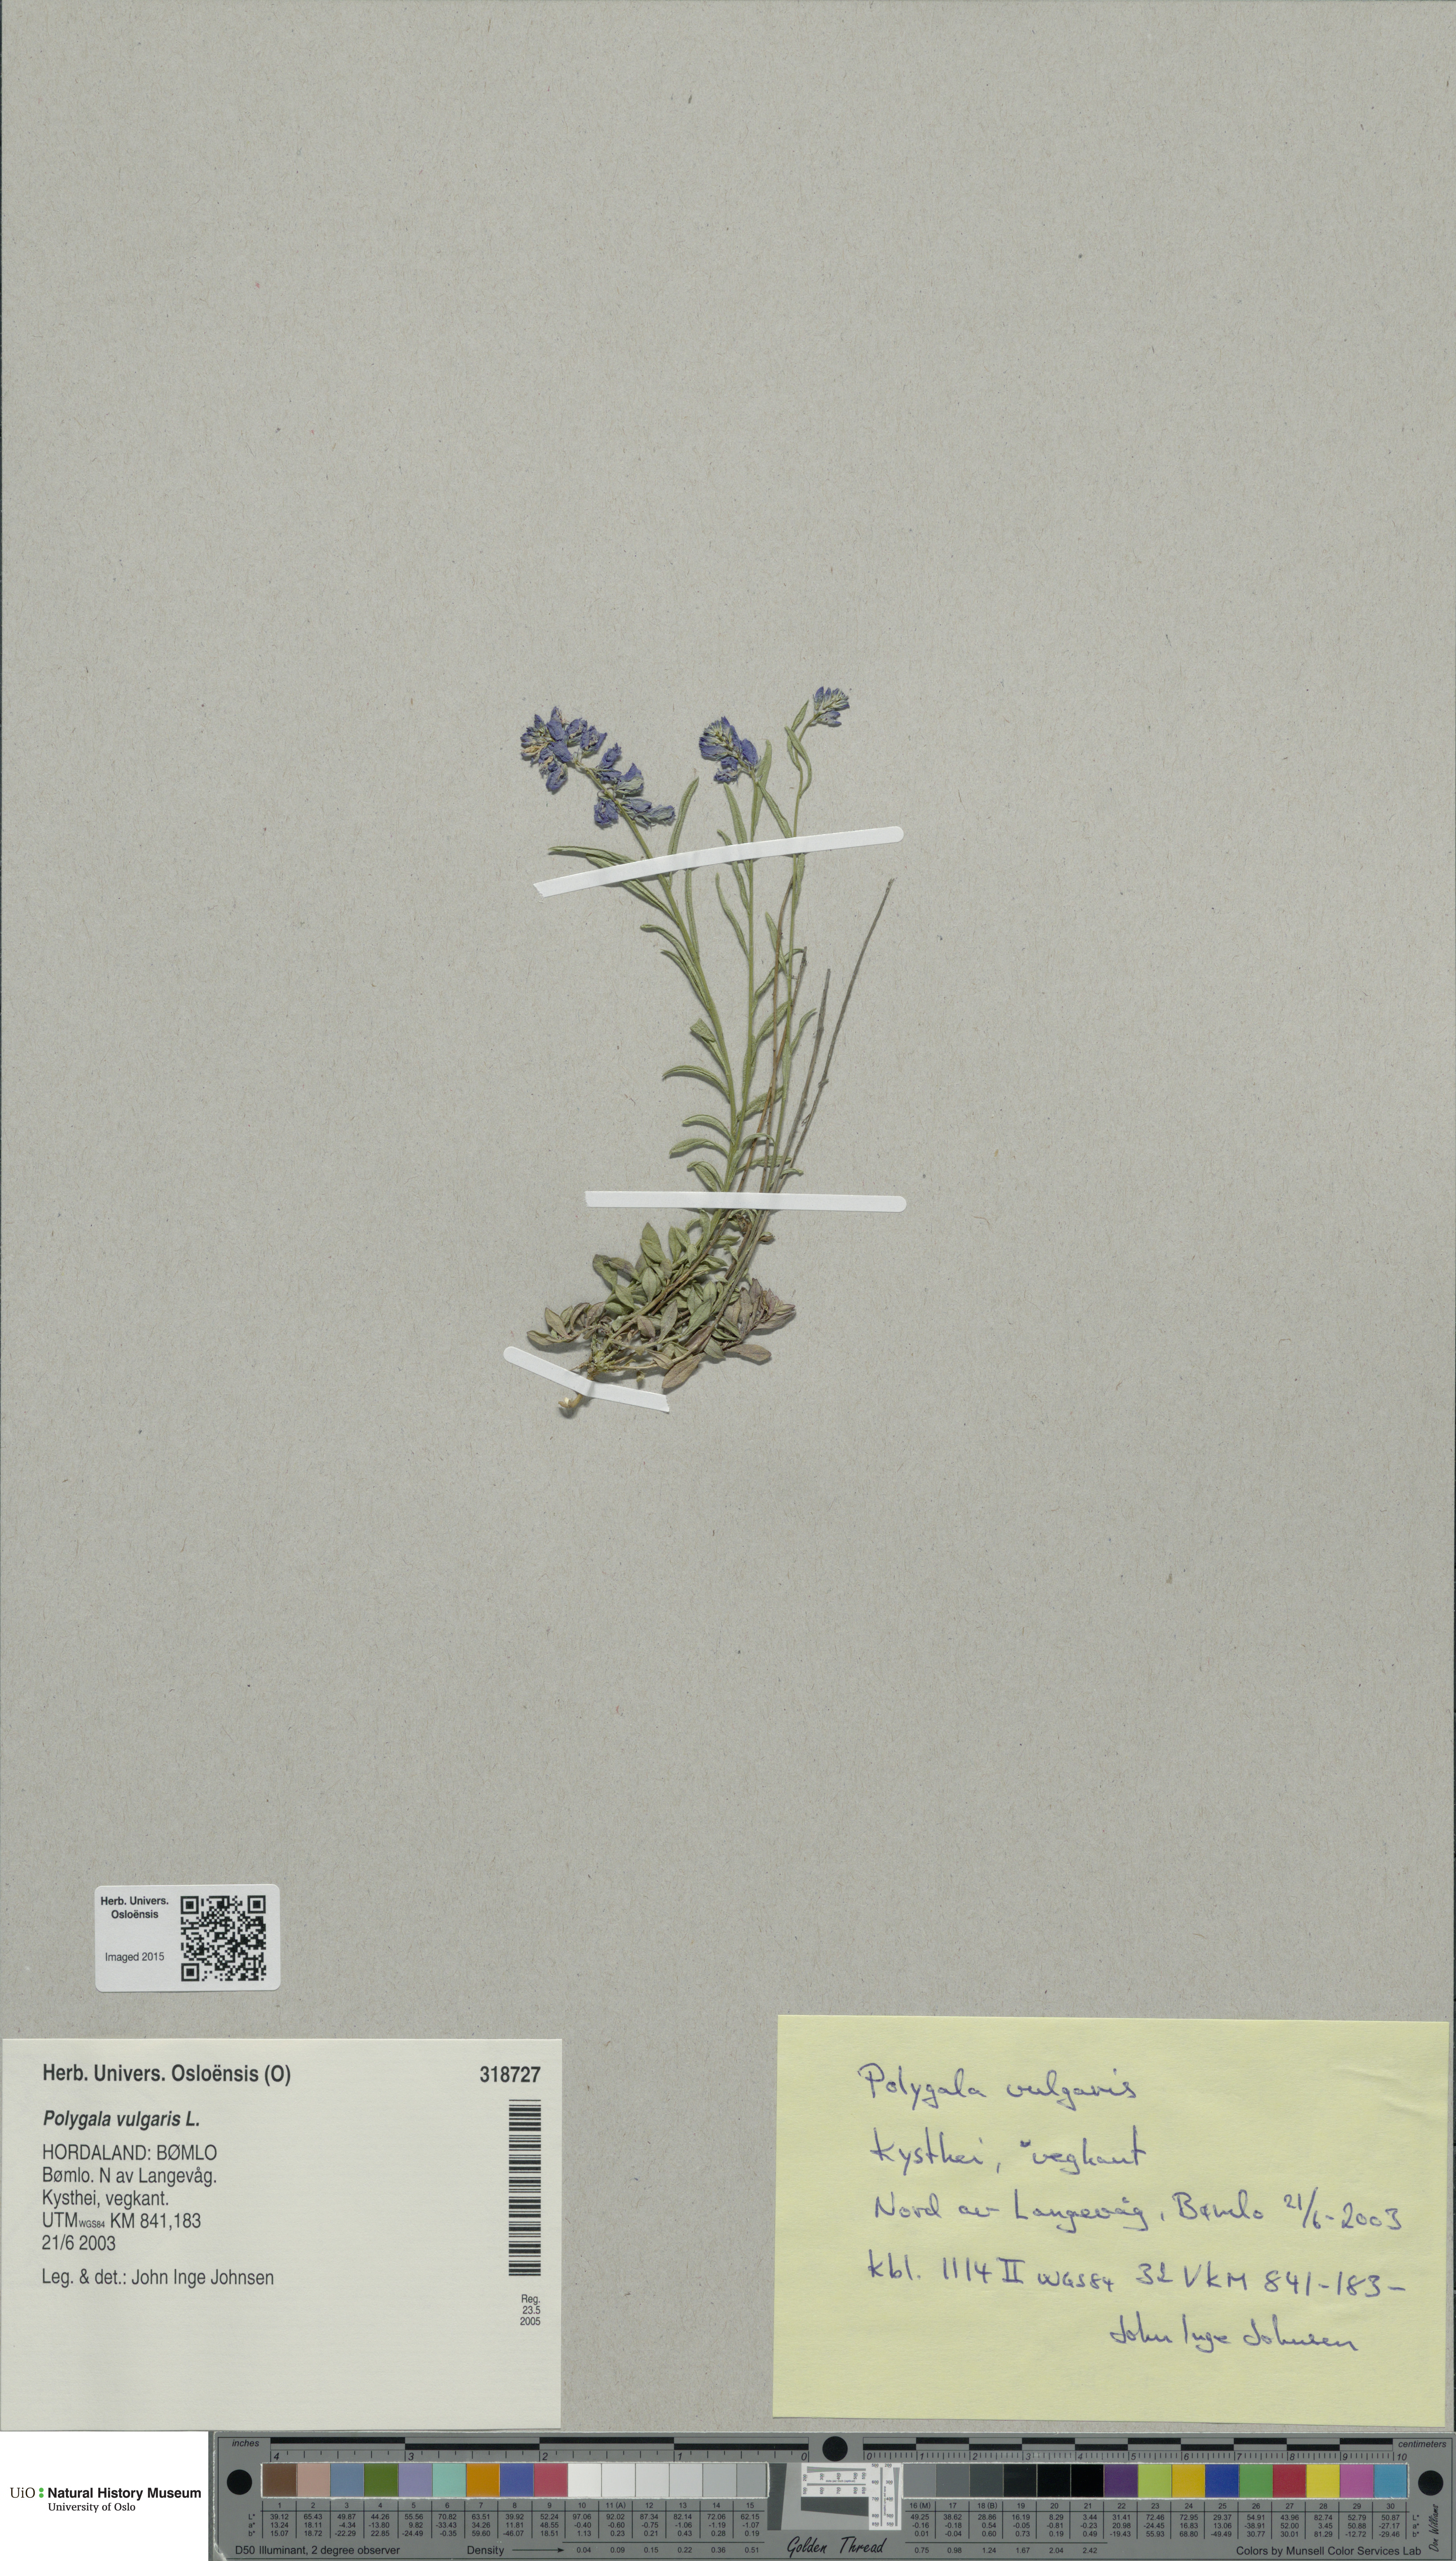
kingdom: Plantae
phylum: Tracheophyta
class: Magnoliopsida
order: Fabales
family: Polygalaceae
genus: Polygala
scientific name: Polygala vulgaris
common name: Common milkwort
